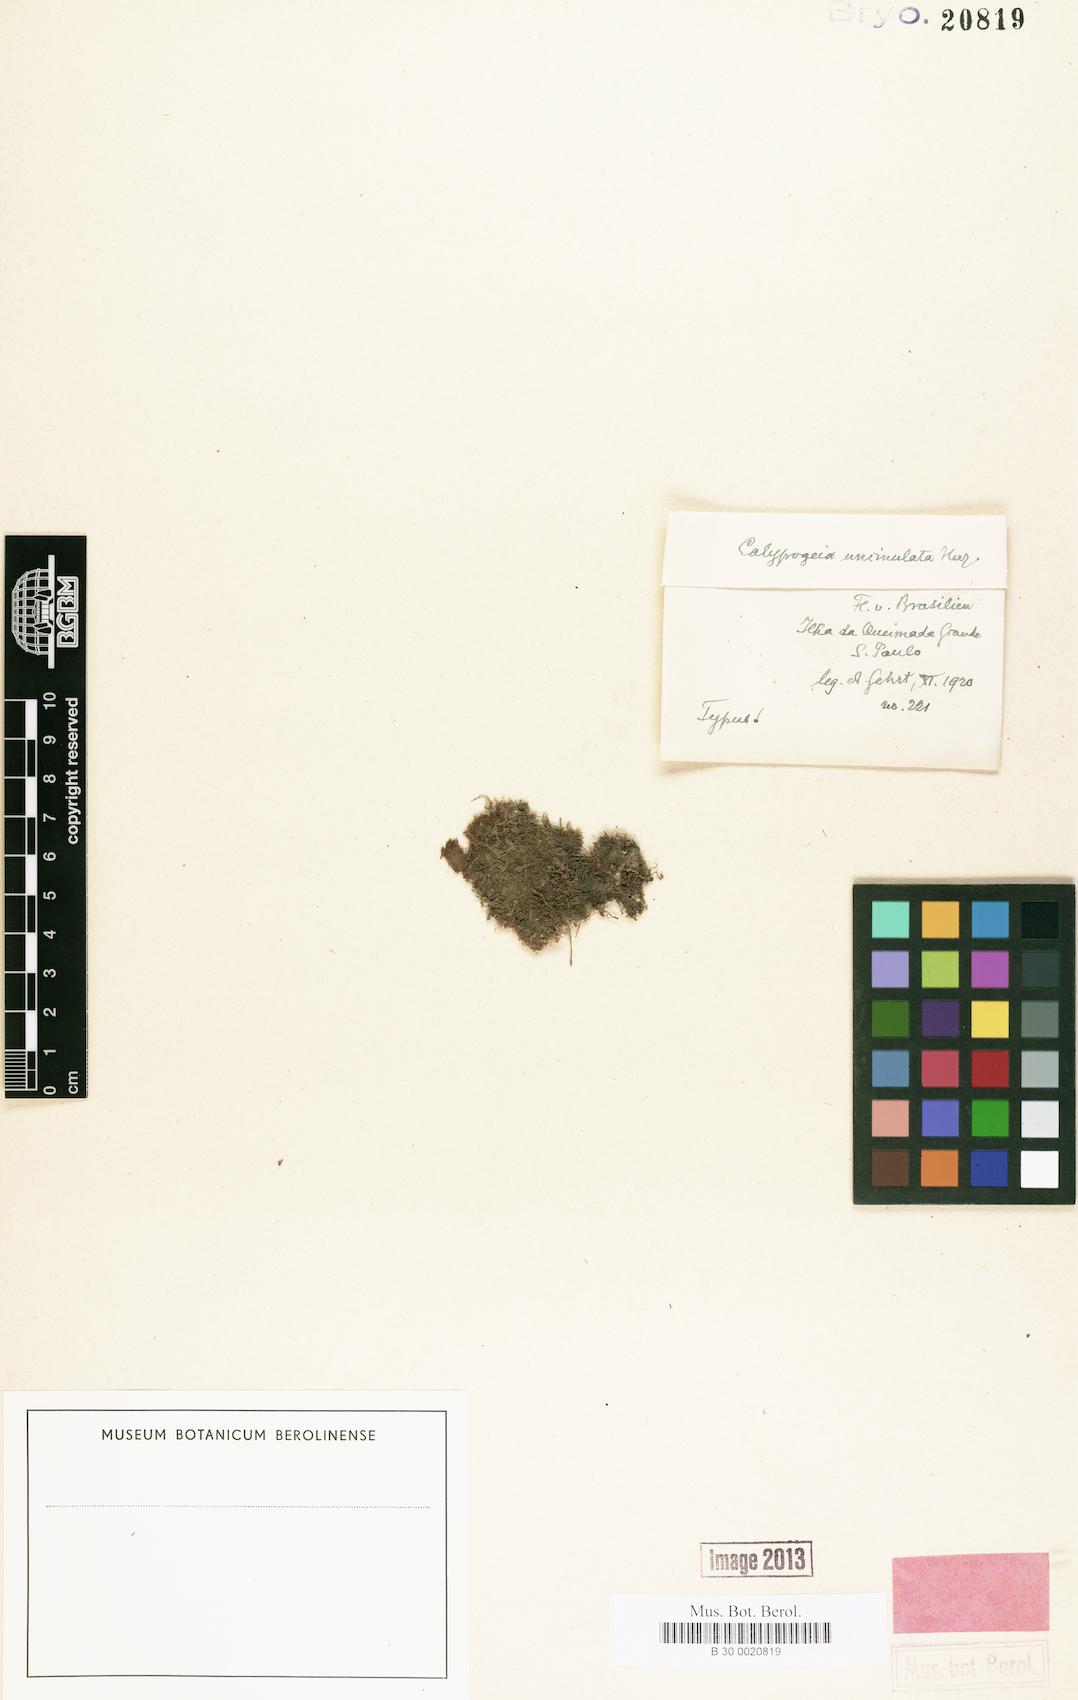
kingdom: Plantae
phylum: Marchantiophyta
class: Jungermanniopsida
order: Jungermanniales
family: Calypogeiaceae
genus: Calypogeia
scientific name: Calypogeia uncinulatula
